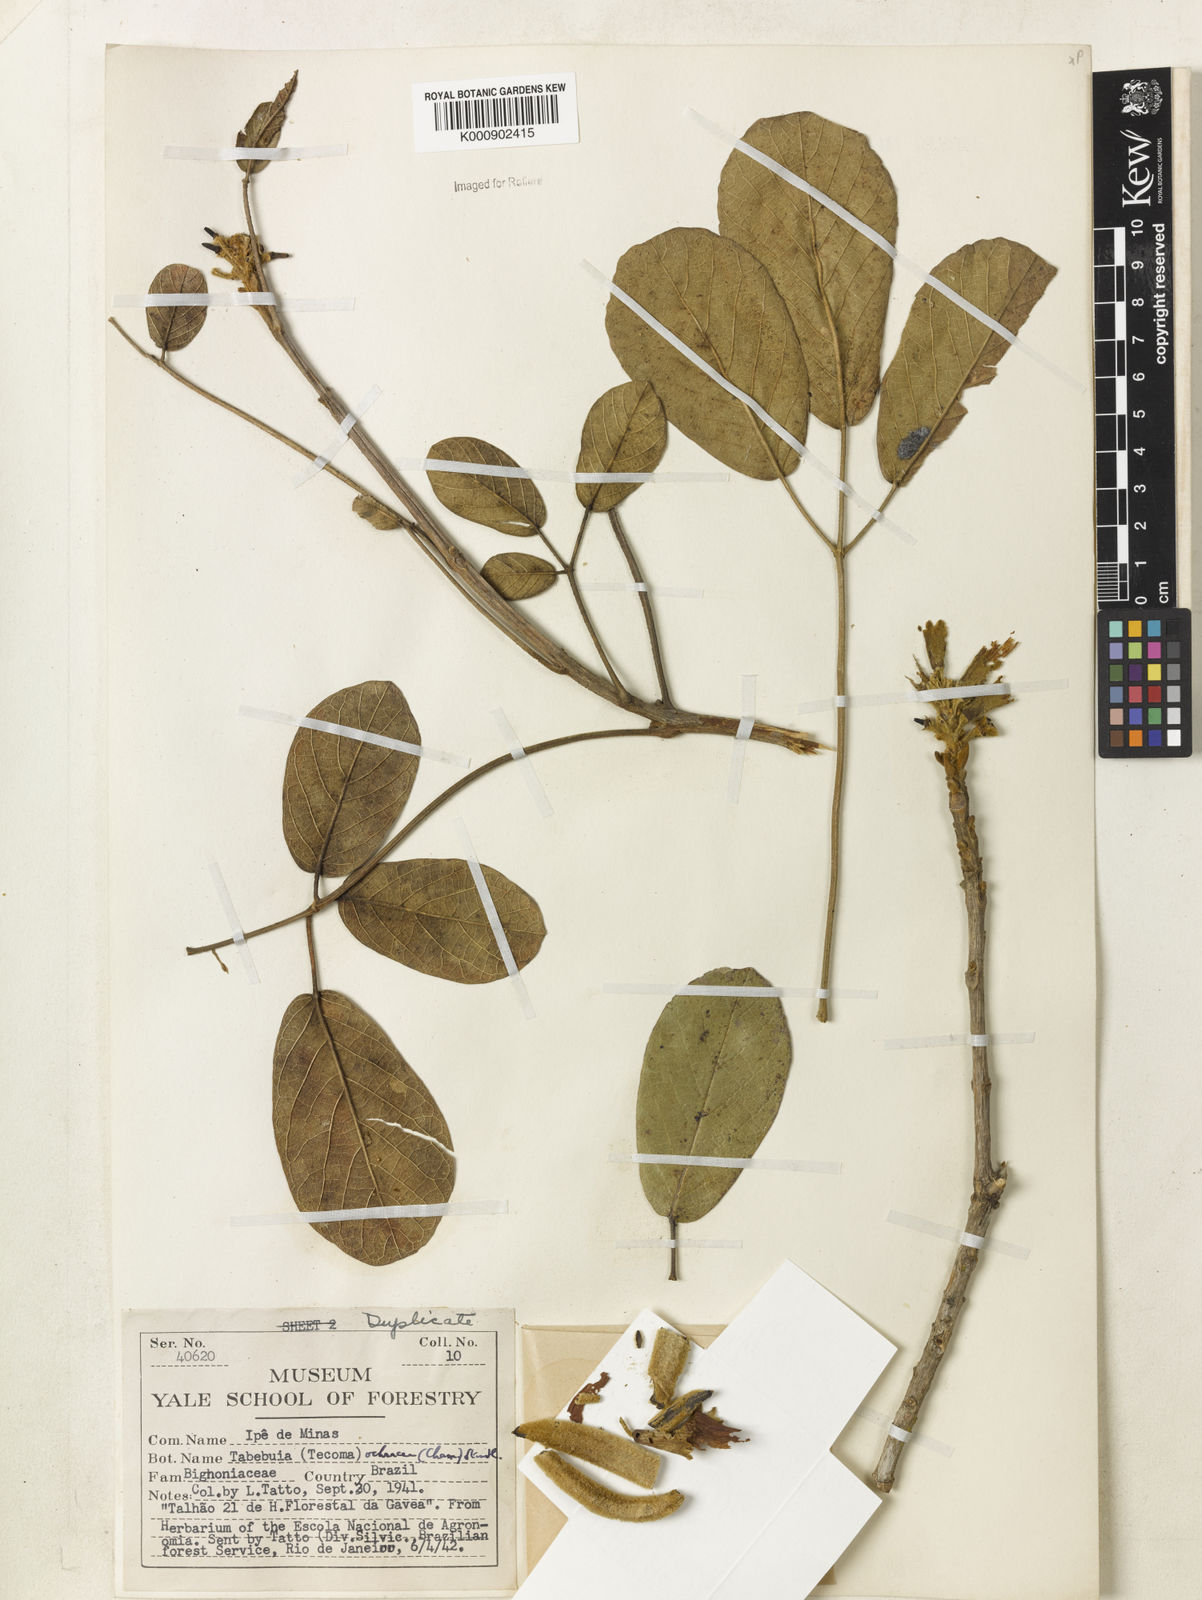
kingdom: Plantae
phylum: Tracheophyta
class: Magnoliopsida
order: Lamiales
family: Bignoniaceae
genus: Handroanthus
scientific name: Handroanthus ochraceus
